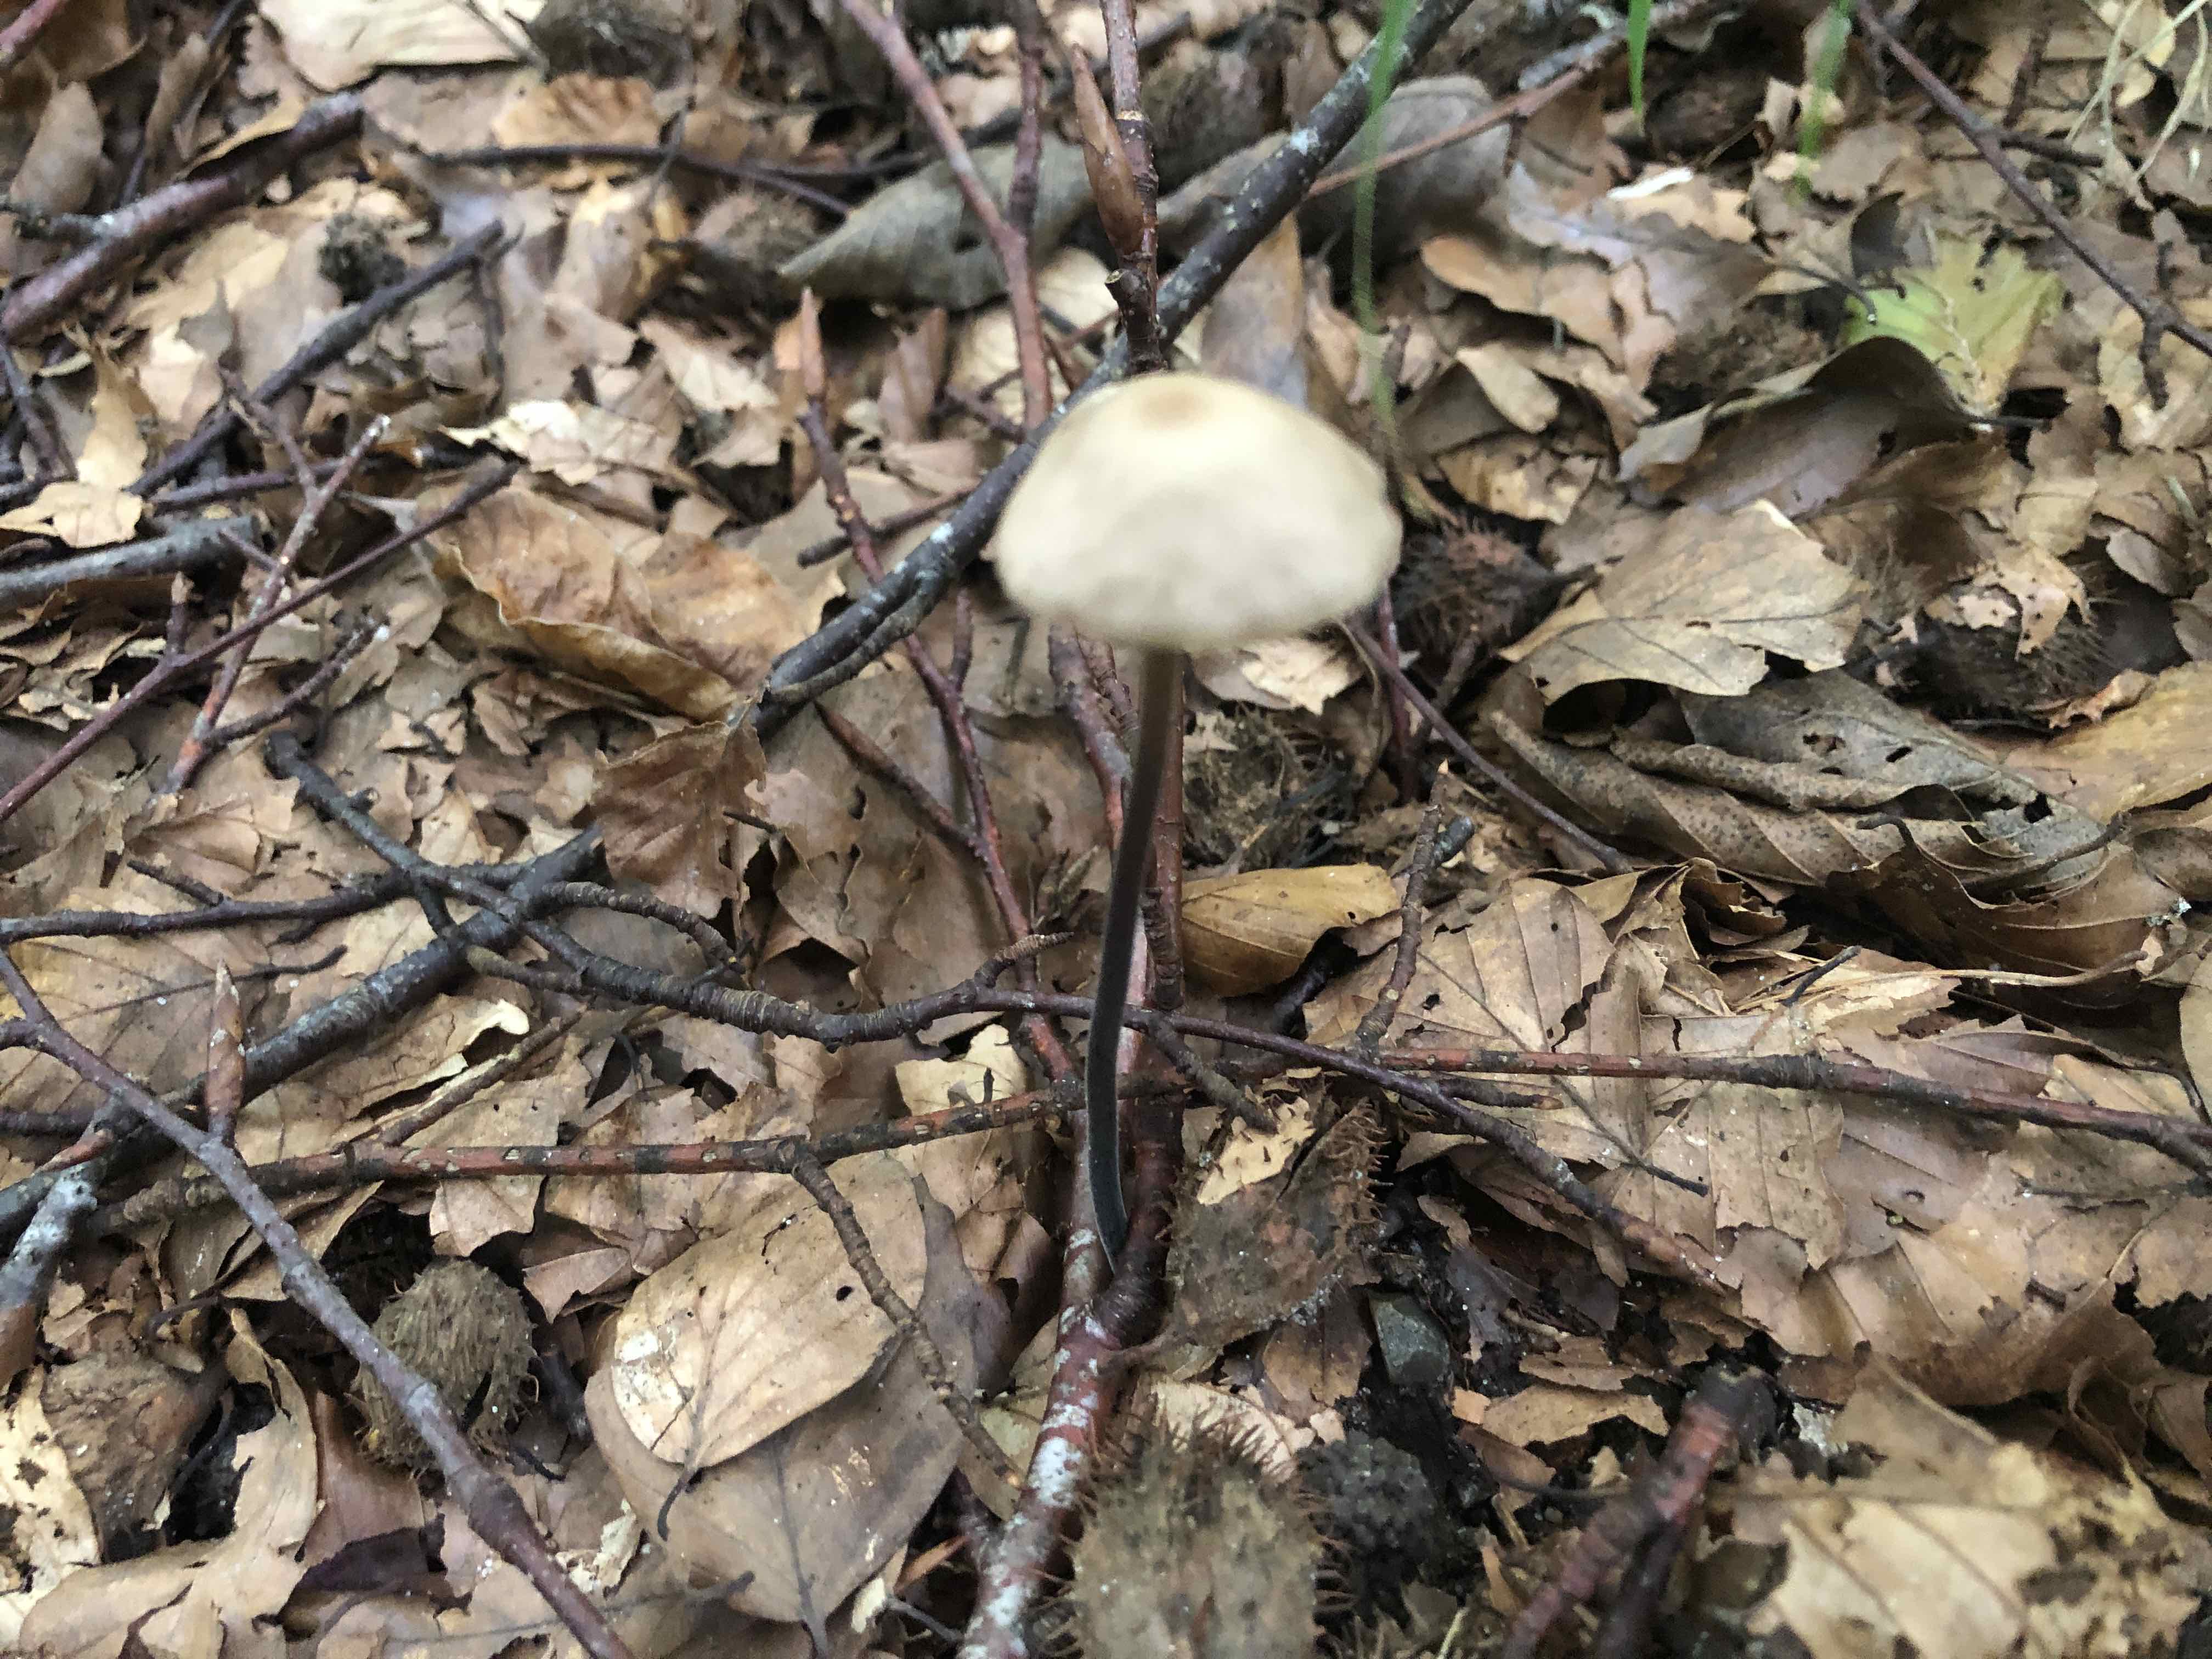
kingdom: Fungi
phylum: Basidiomycota
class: Agaricomycetes
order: Agaricales
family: Omphalotaceae
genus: Mycetinis
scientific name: Mycetinis alliaceus
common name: stor løghat
